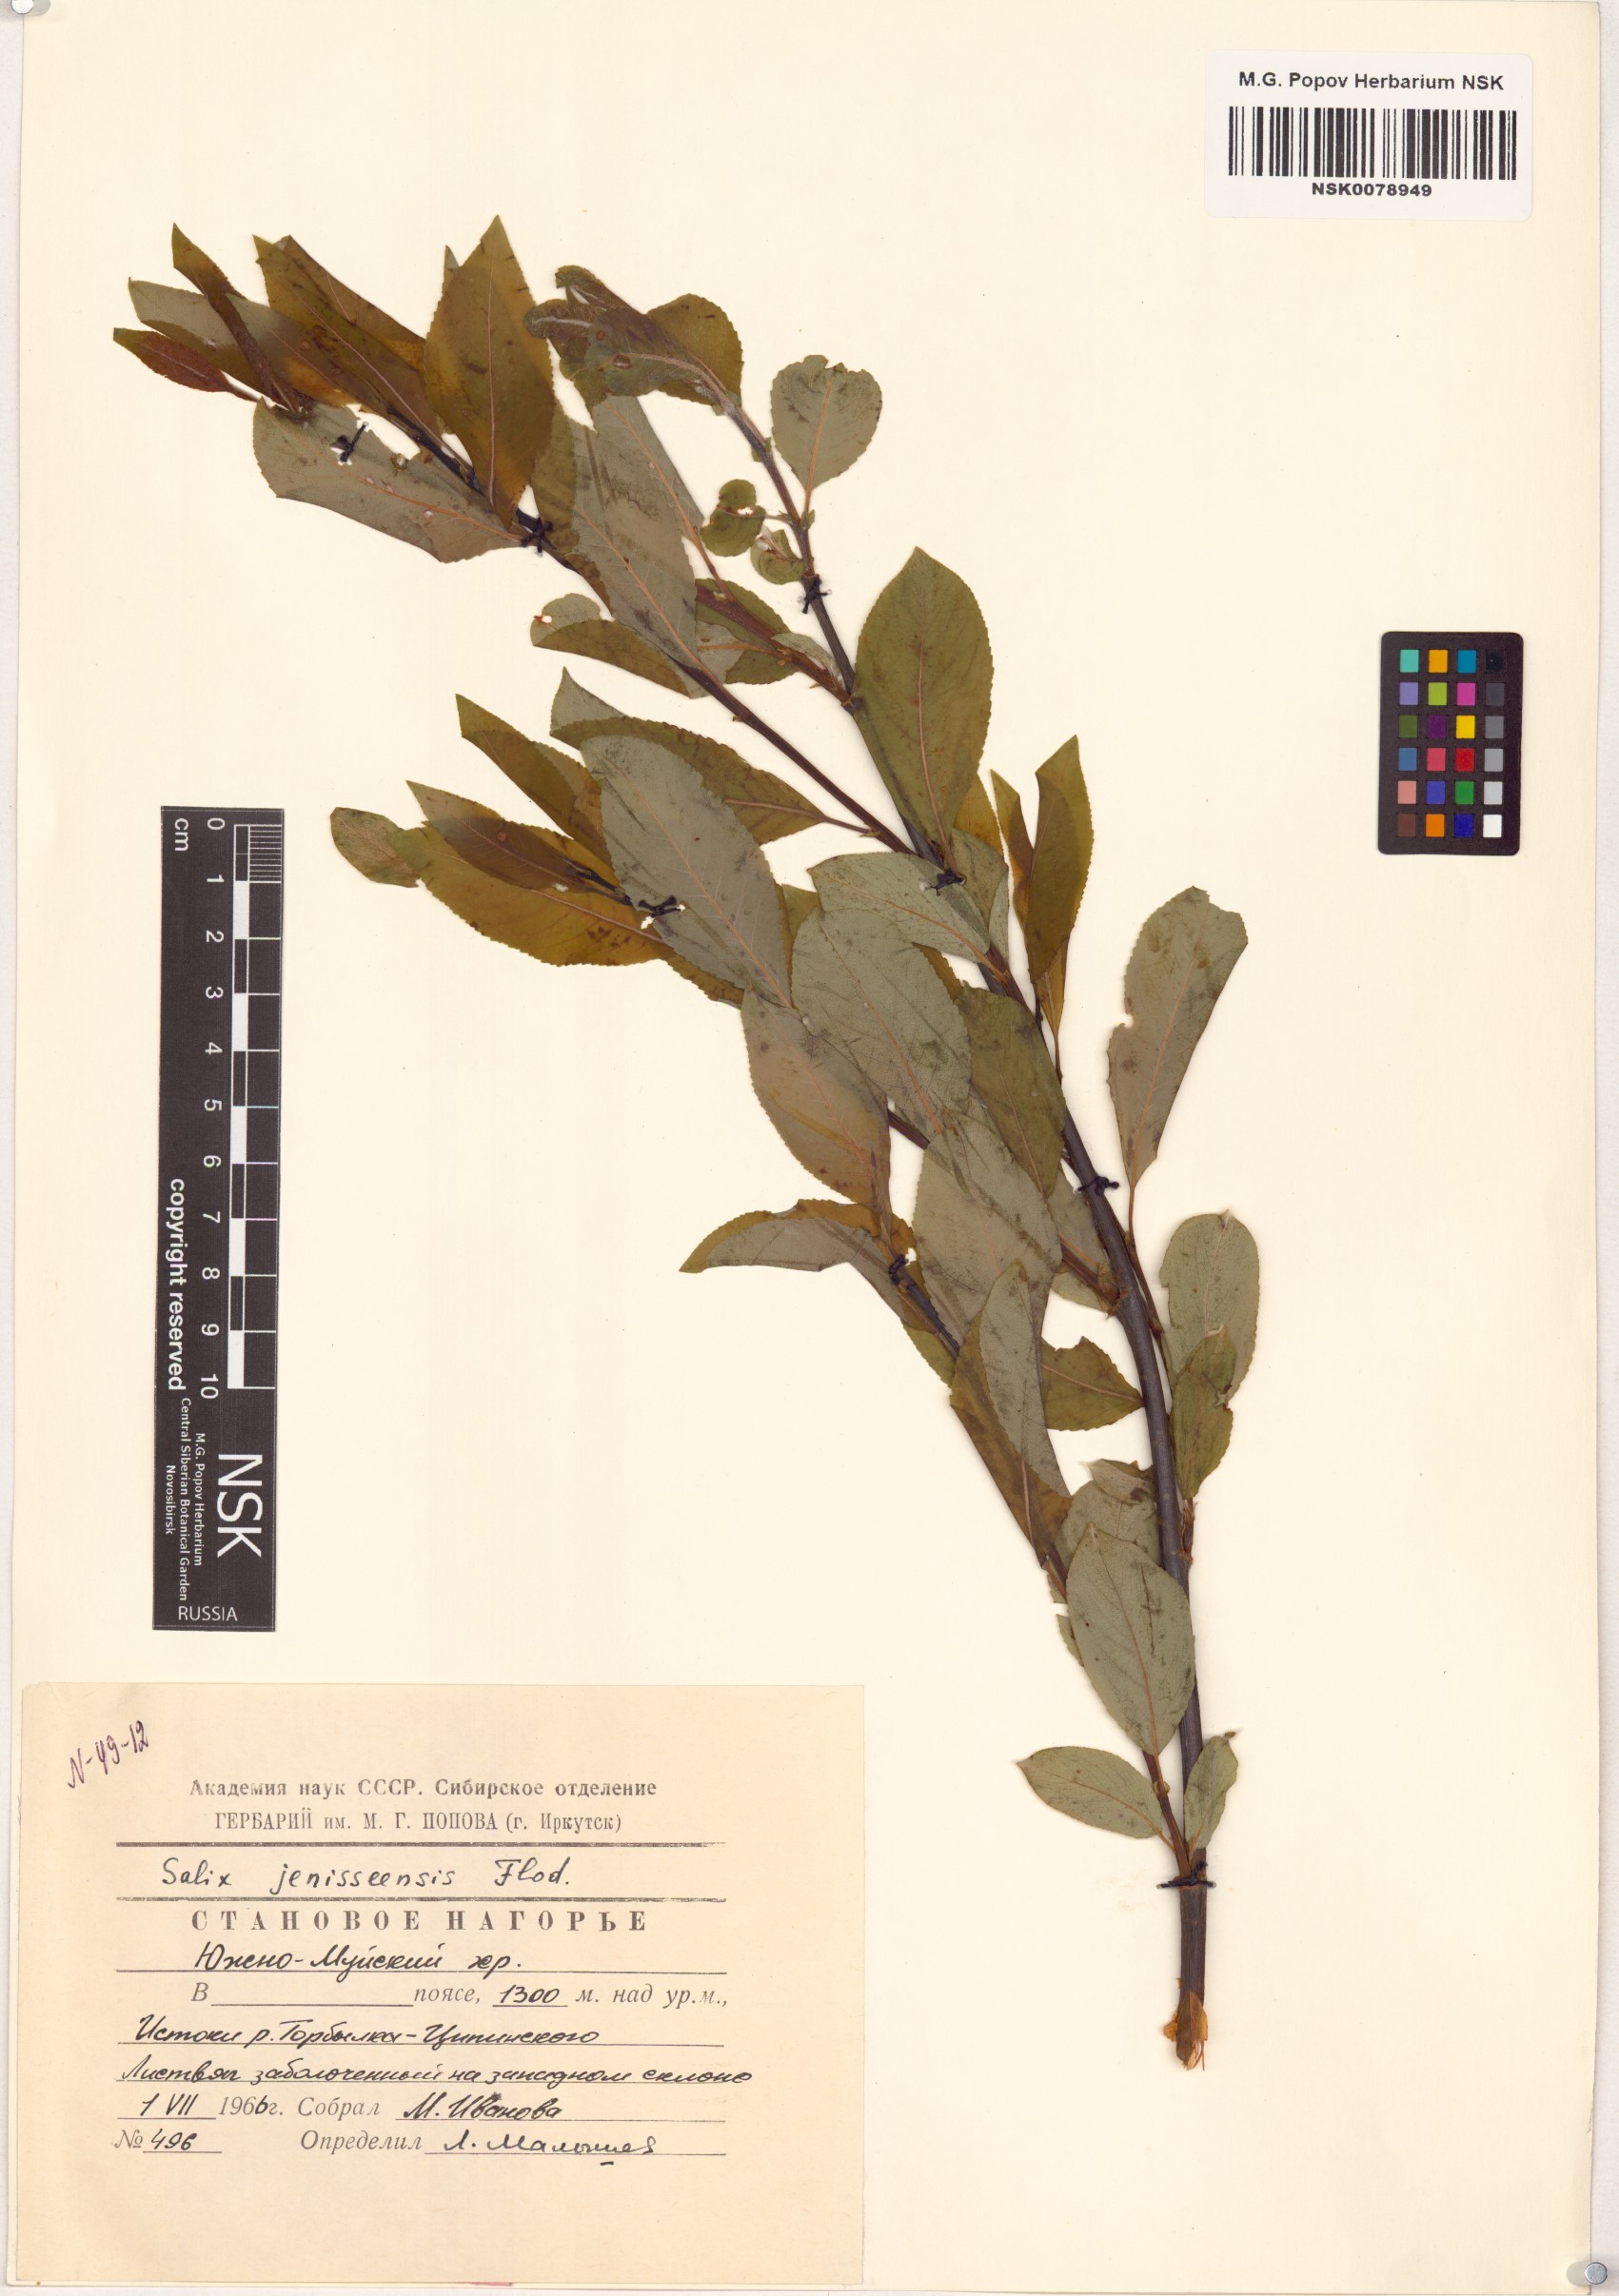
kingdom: Plantae
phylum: Tracheophyta
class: Magnoliopsida
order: Malpighiales
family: Salicaceae
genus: Salix
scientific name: Salix jenisseensis
